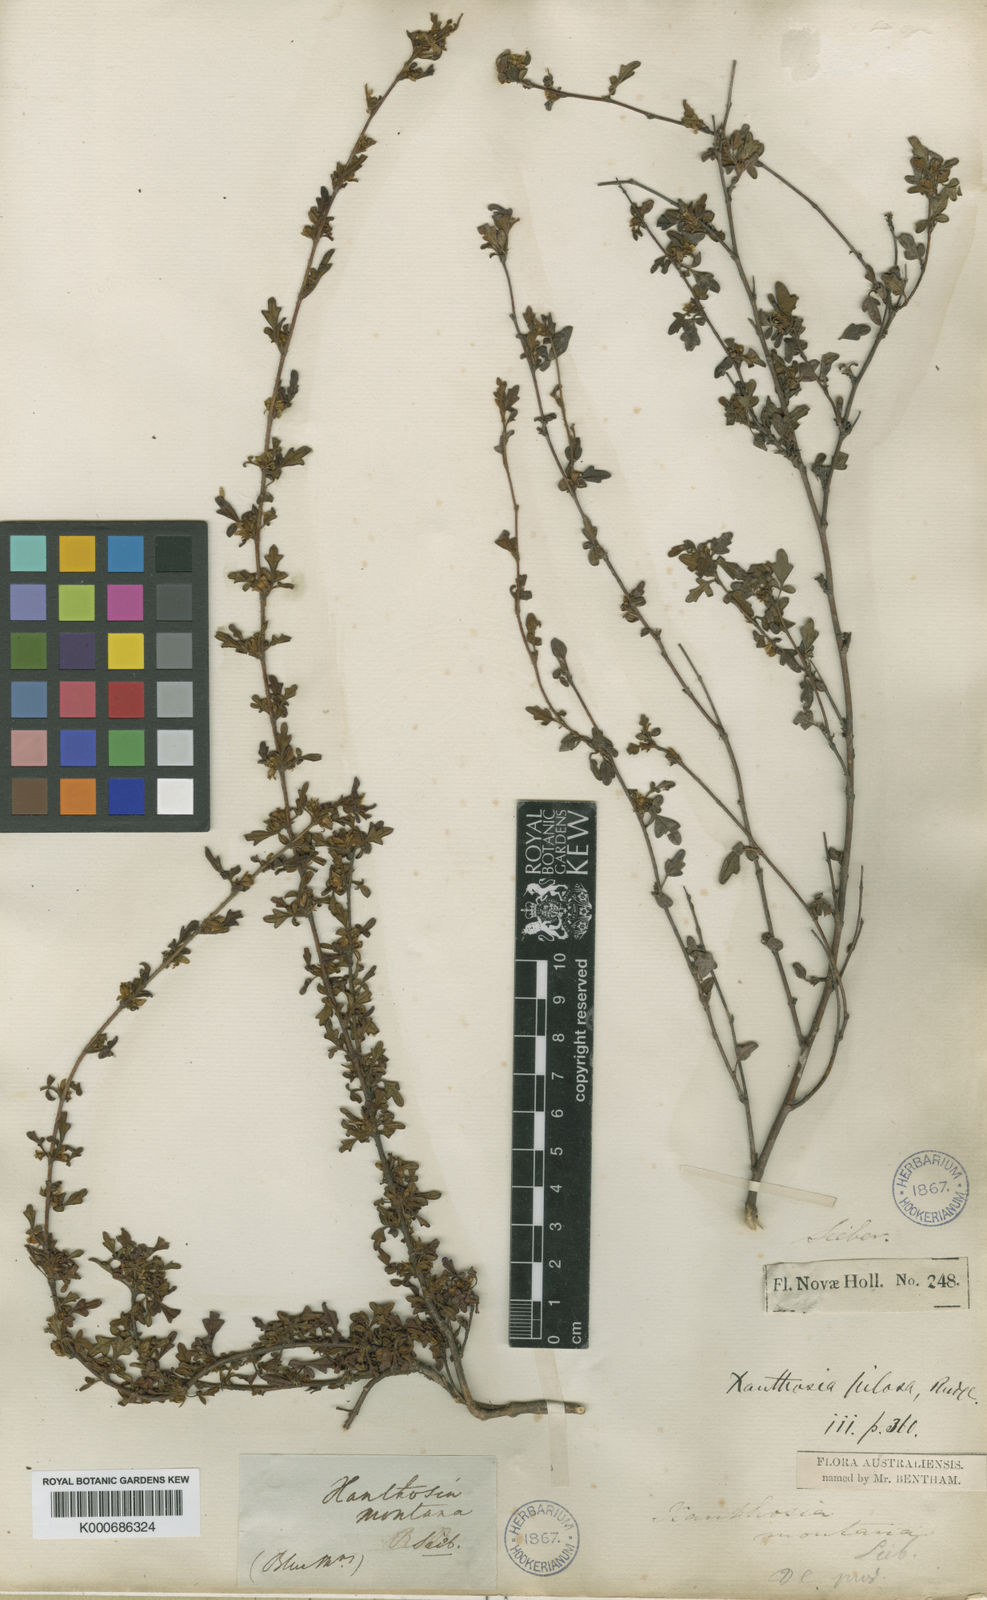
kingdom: Plantae
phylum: Tracheophyta
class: Magnoliopsida
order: Apiales
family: Apiaceae
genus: Xanthosia
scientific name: Xanthosia pilosa
